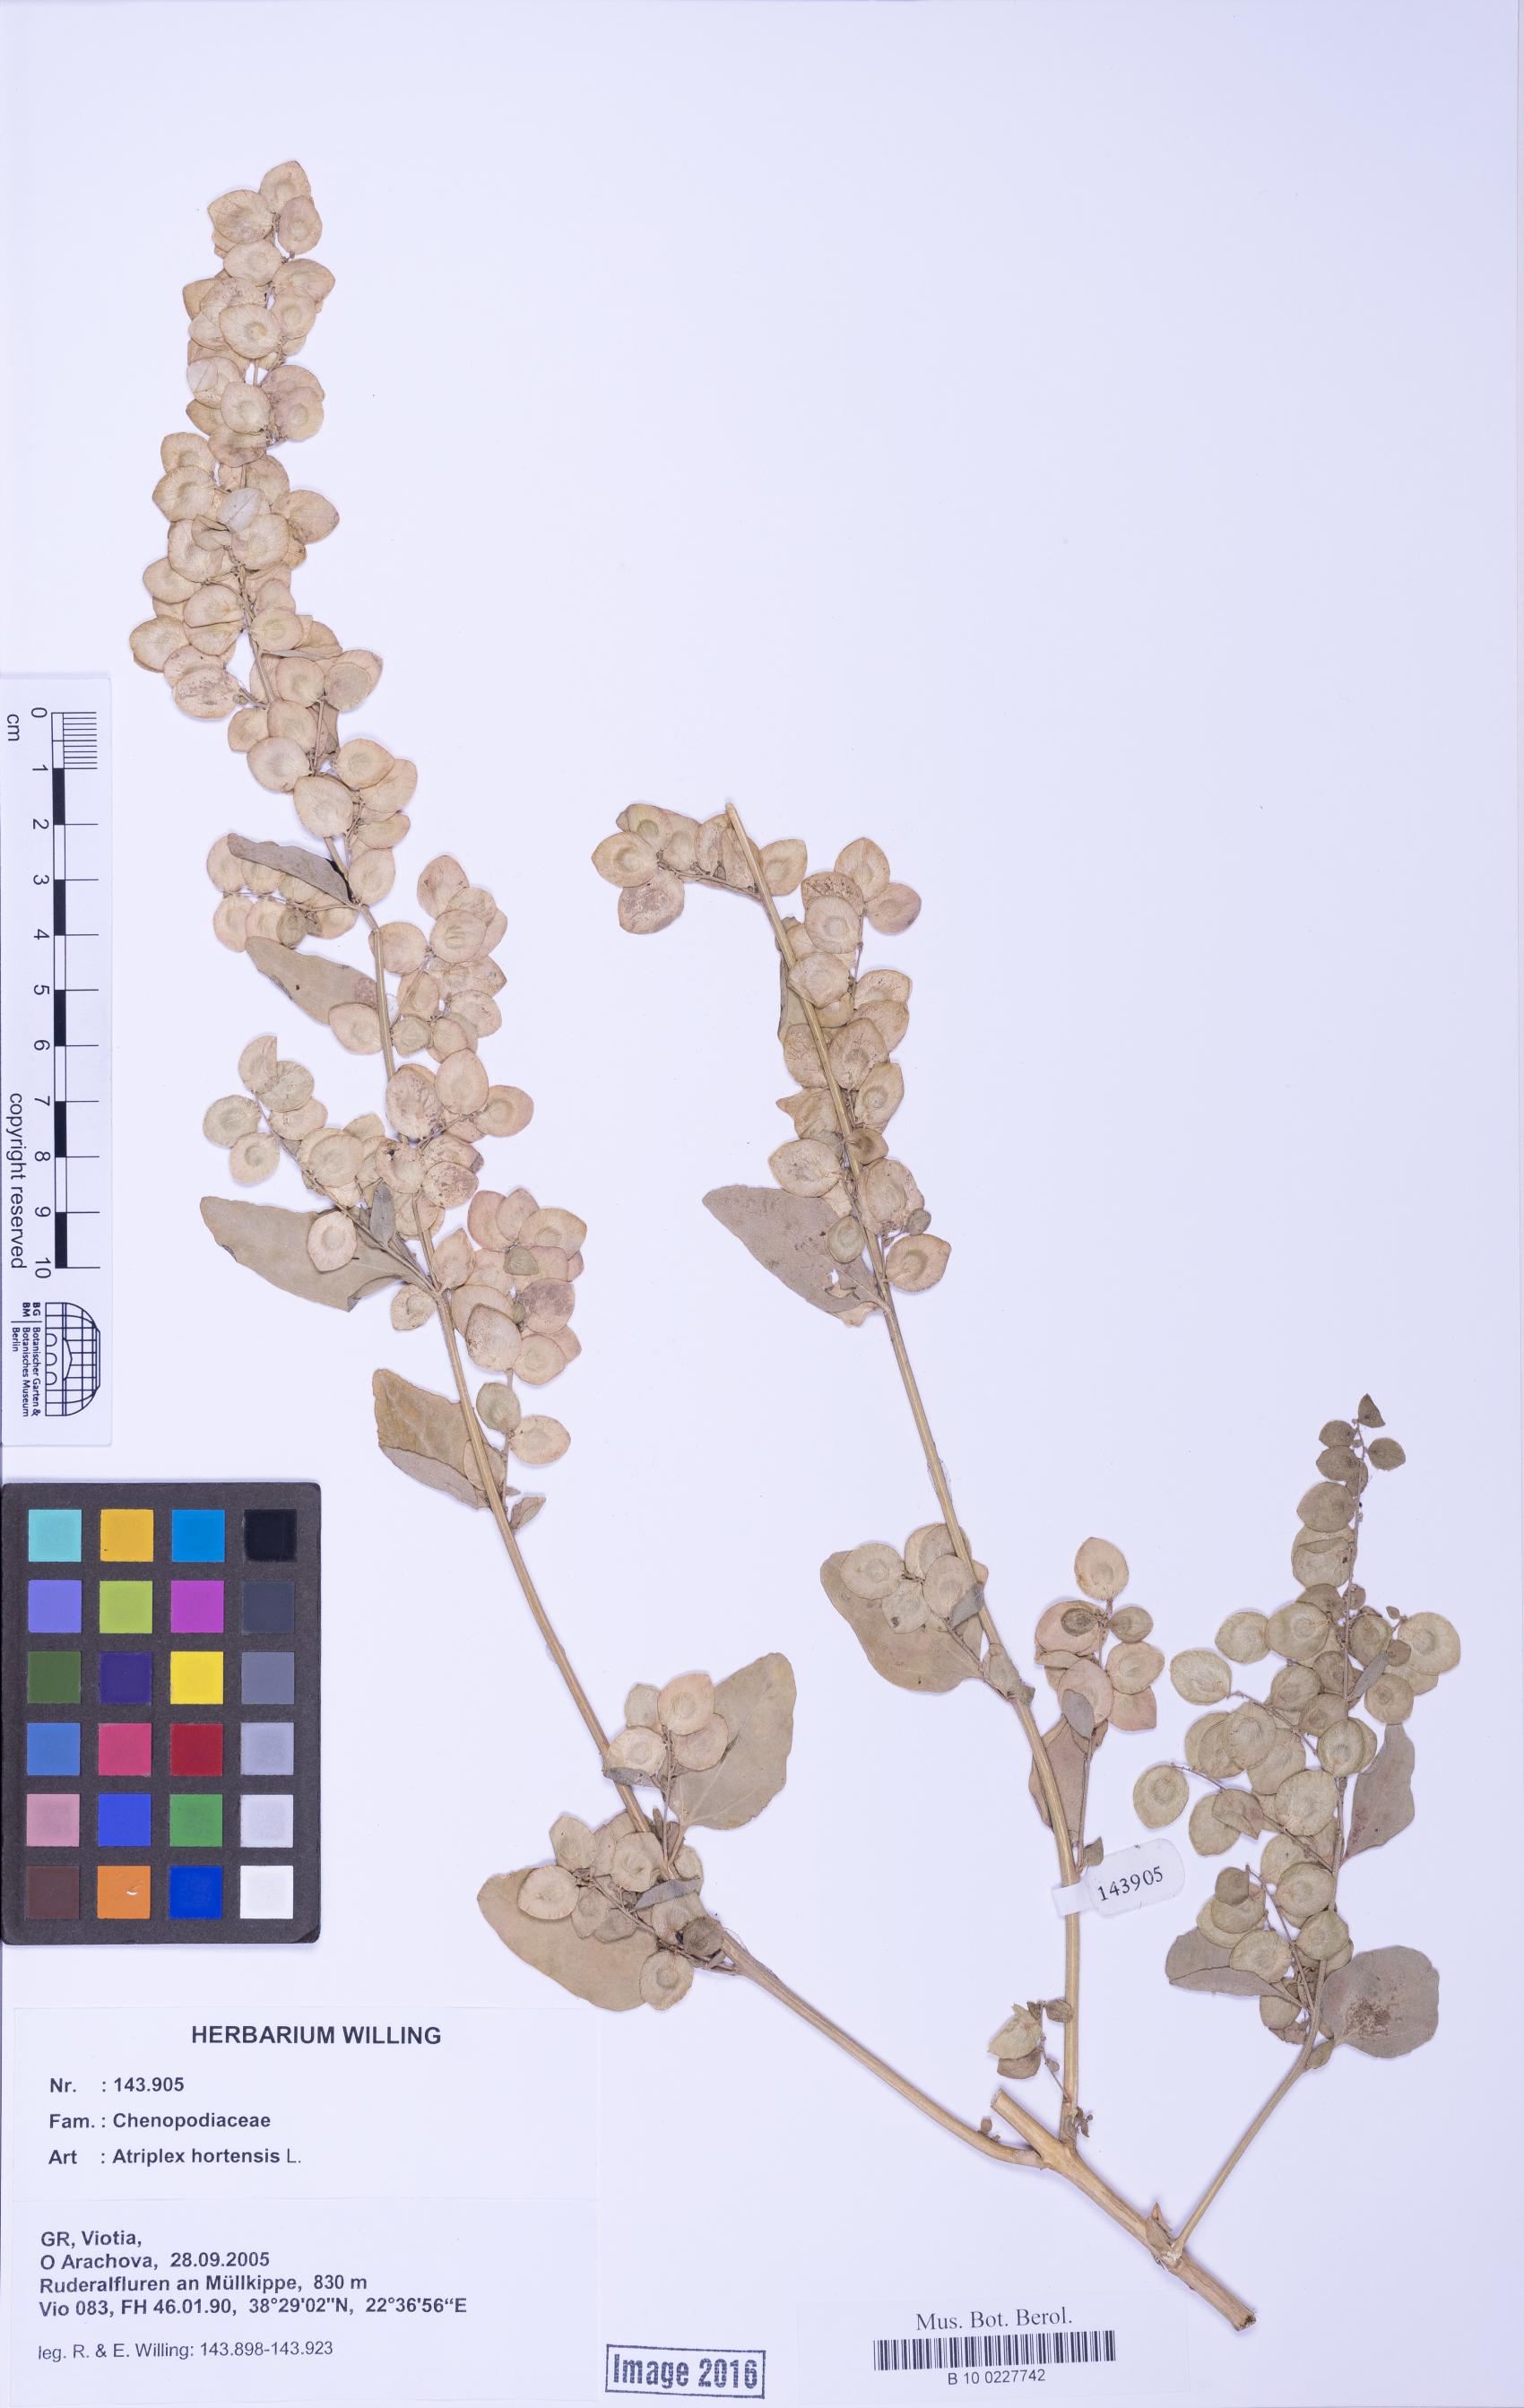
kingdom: Plantae
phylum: Tracheophyta
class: Magnoliopsida
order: Caryophyllales
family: Amaranthaceae
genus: Atriplex
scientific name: Atriplex hortensis
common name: Garden orache
